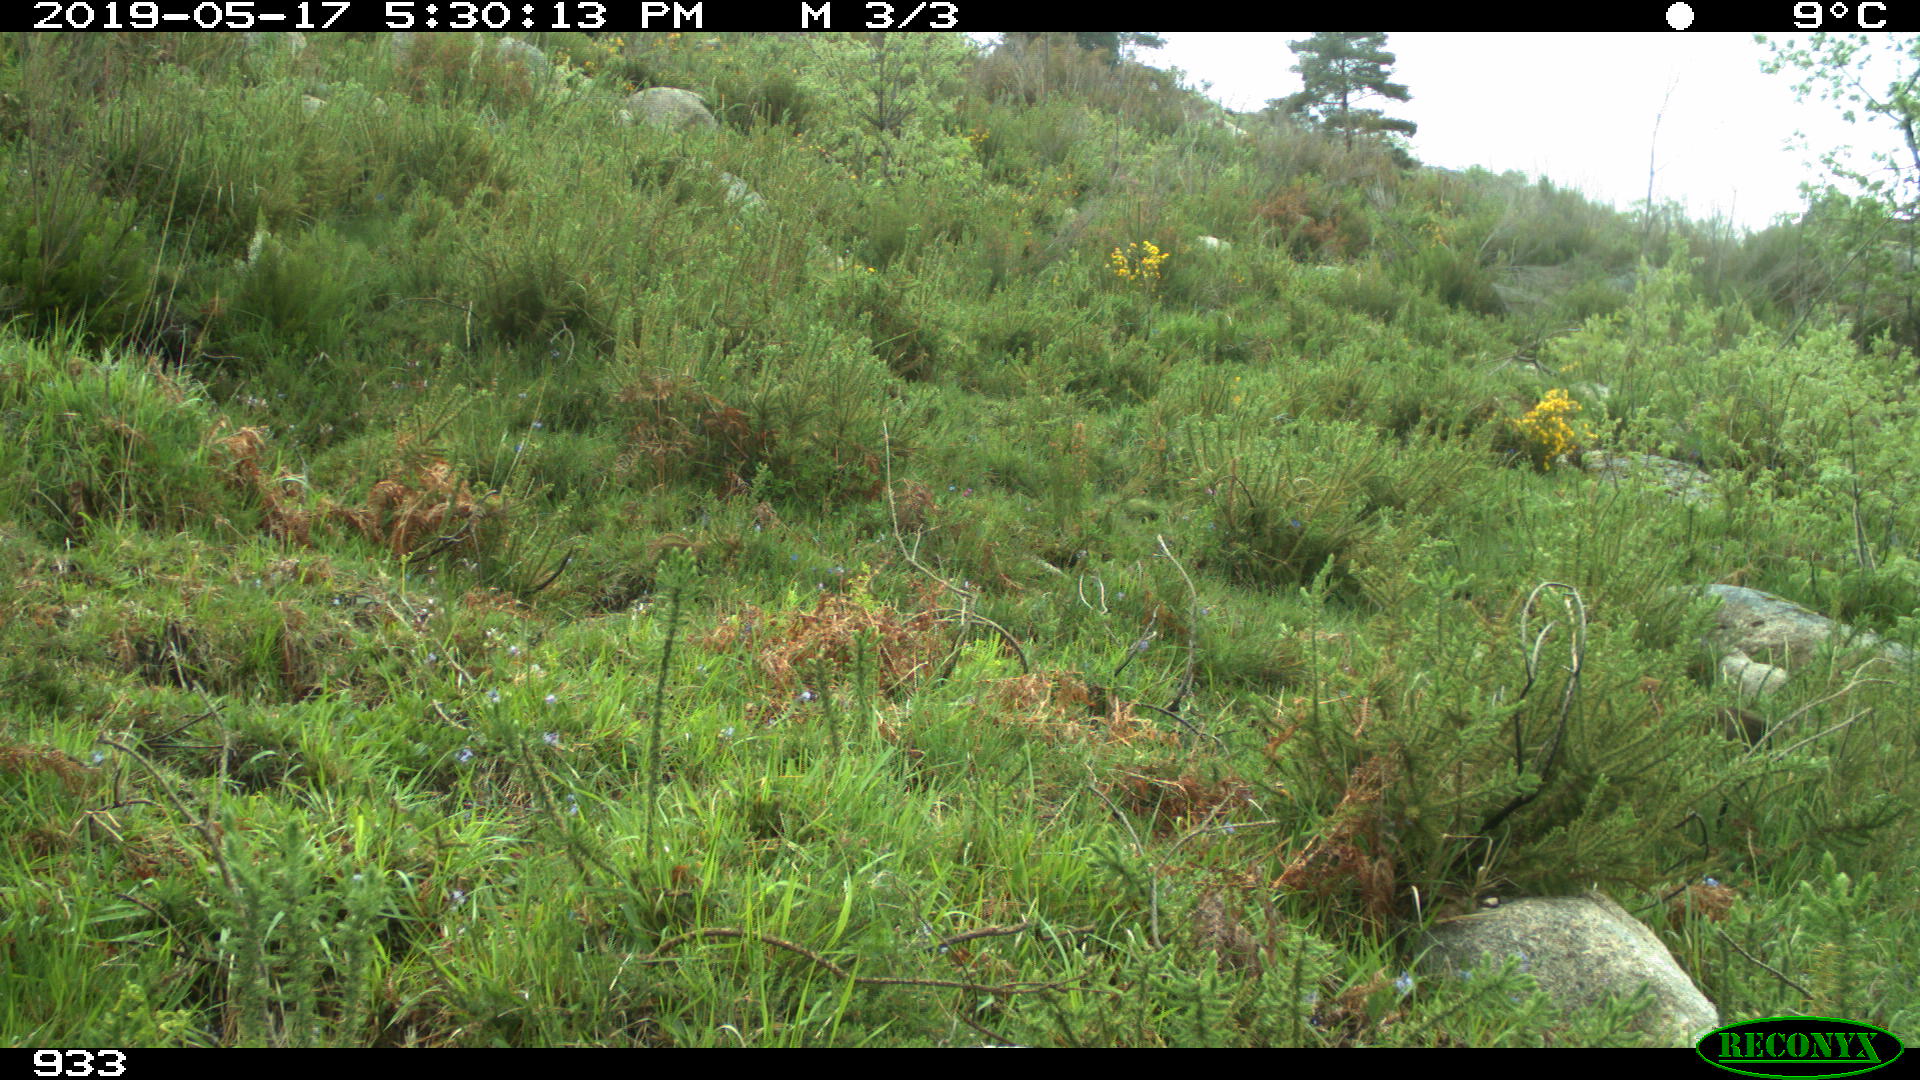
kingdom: Animalia
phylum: Chordata
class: Mammalia
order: Carnivora
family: Canidae
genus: Vulpes
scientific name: Vulpes vulpes
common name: Red fox
